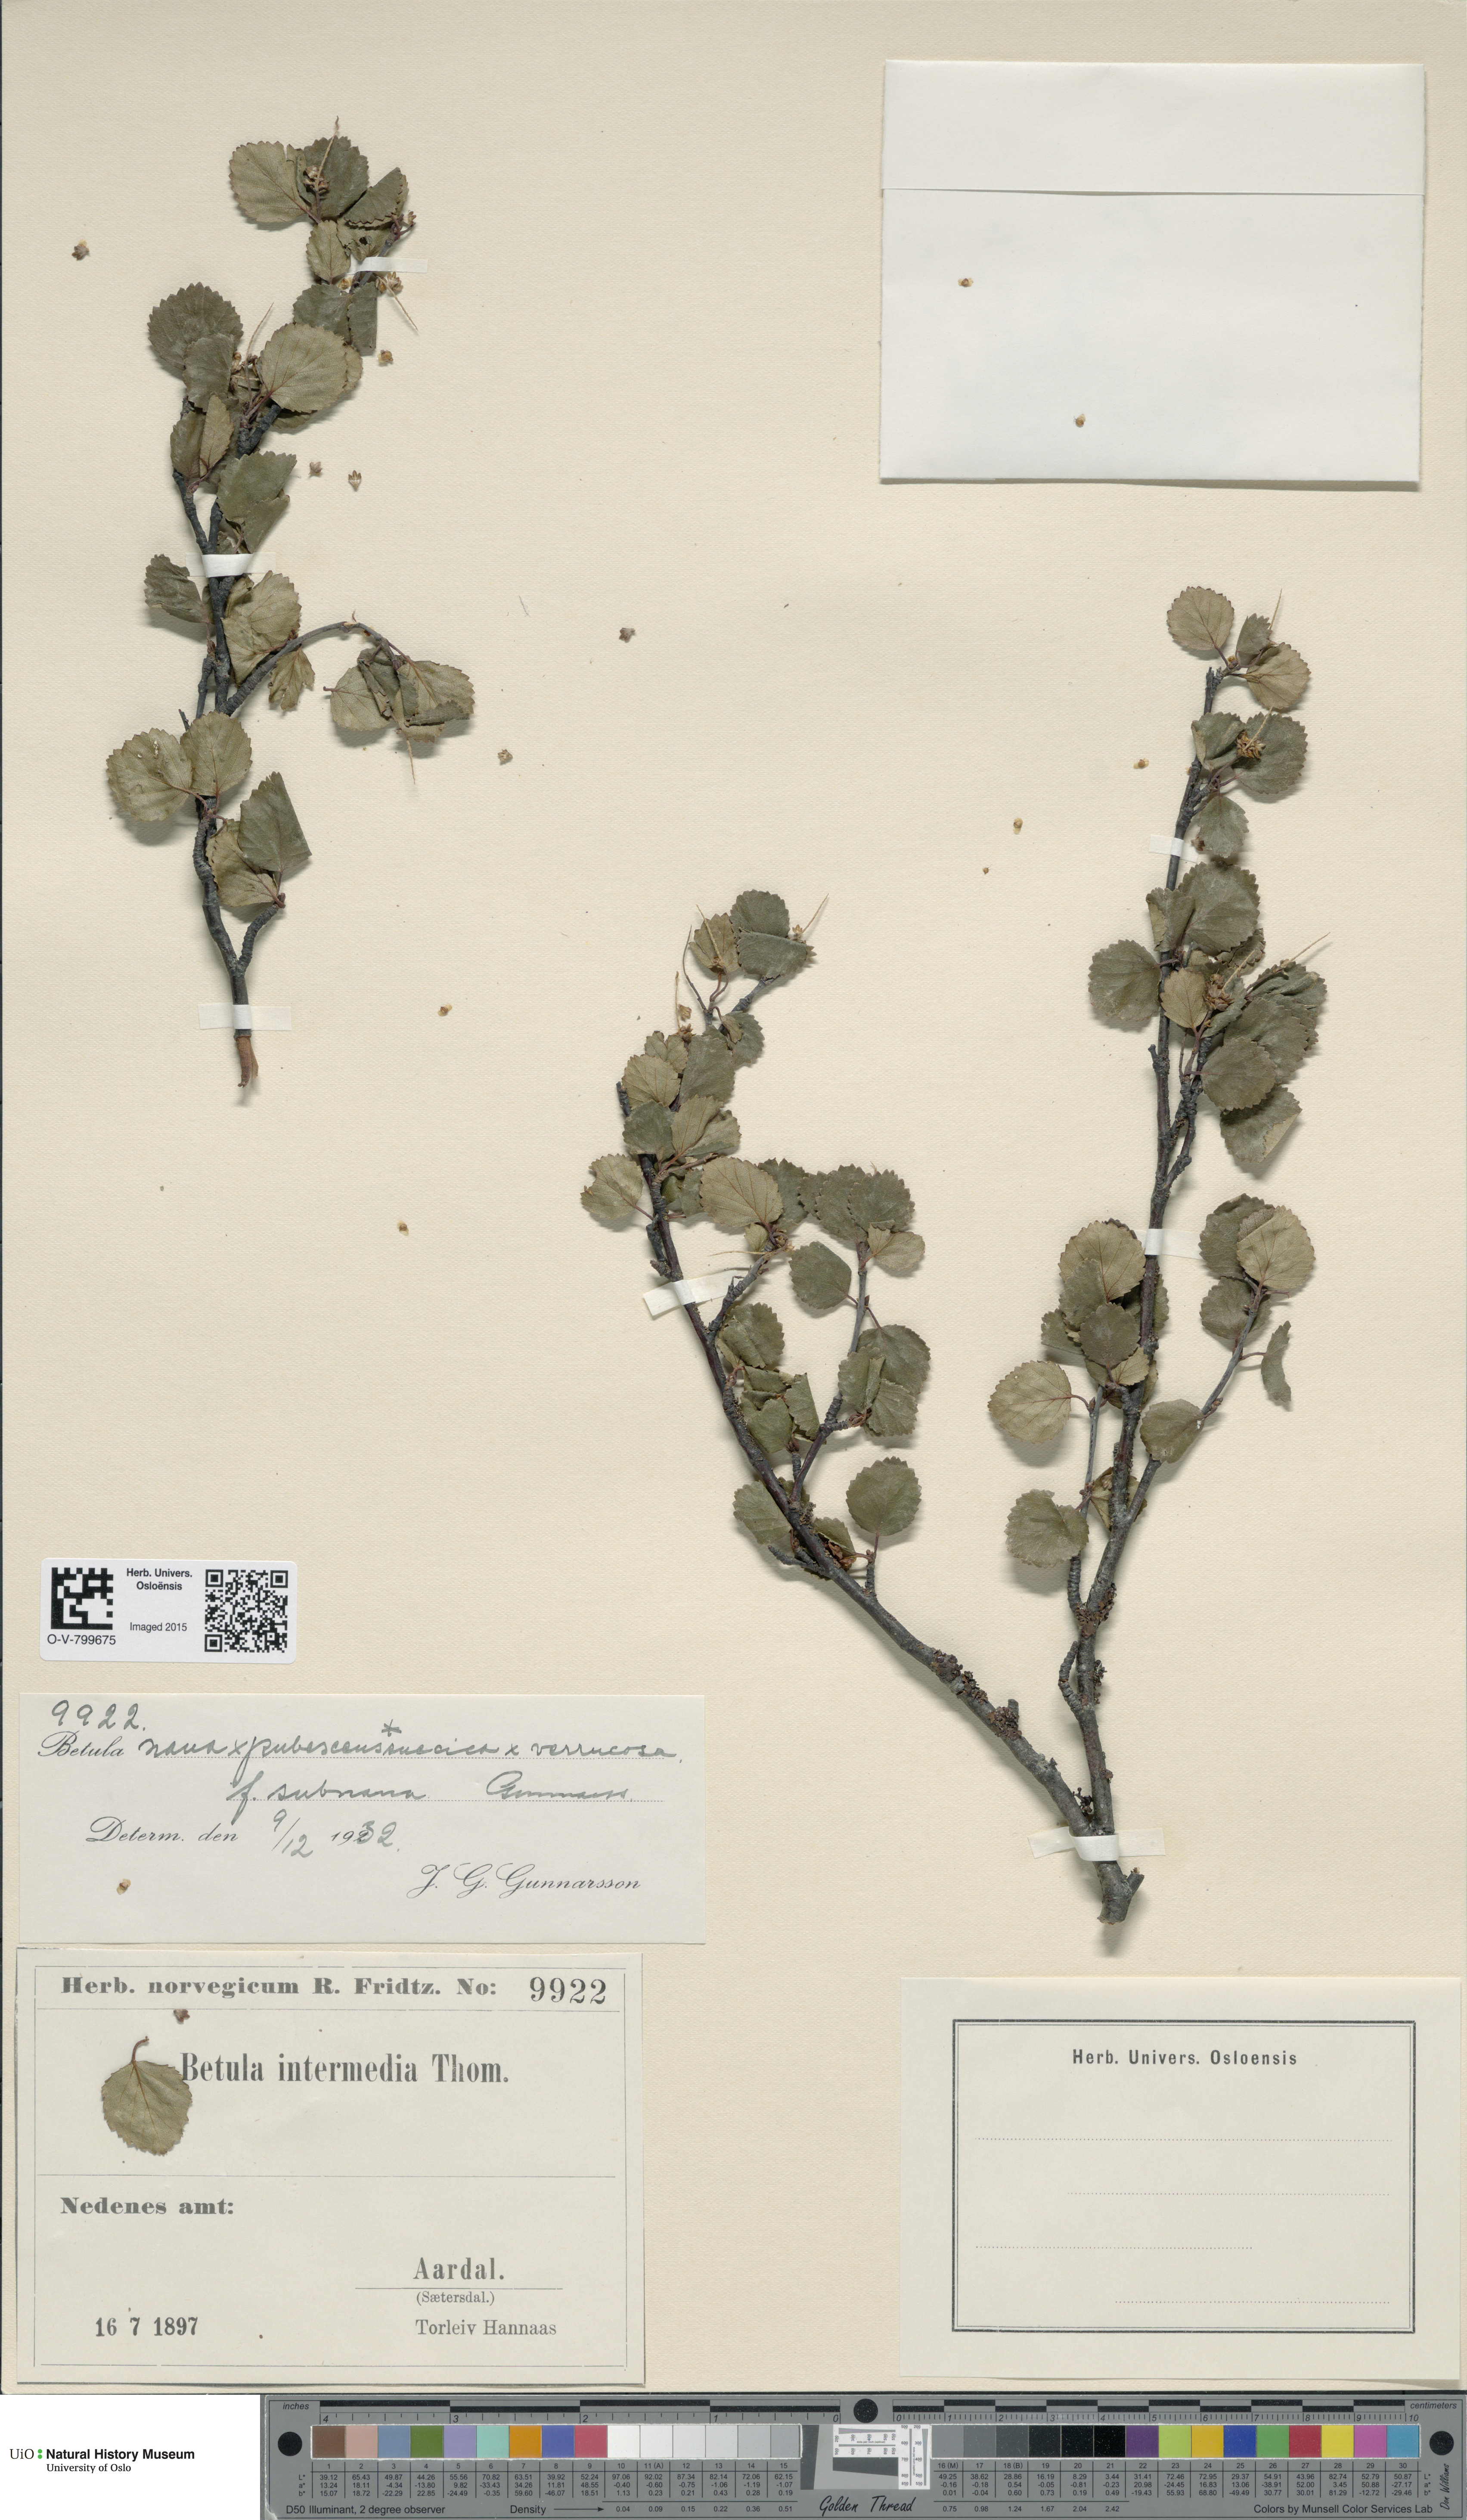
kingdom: Plantae
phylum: Tracheophyta
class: Magnoliopsida
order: Fagales
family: Betulaceae
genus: Betula
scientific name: Betula nana
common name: Arctic dwarf birch
